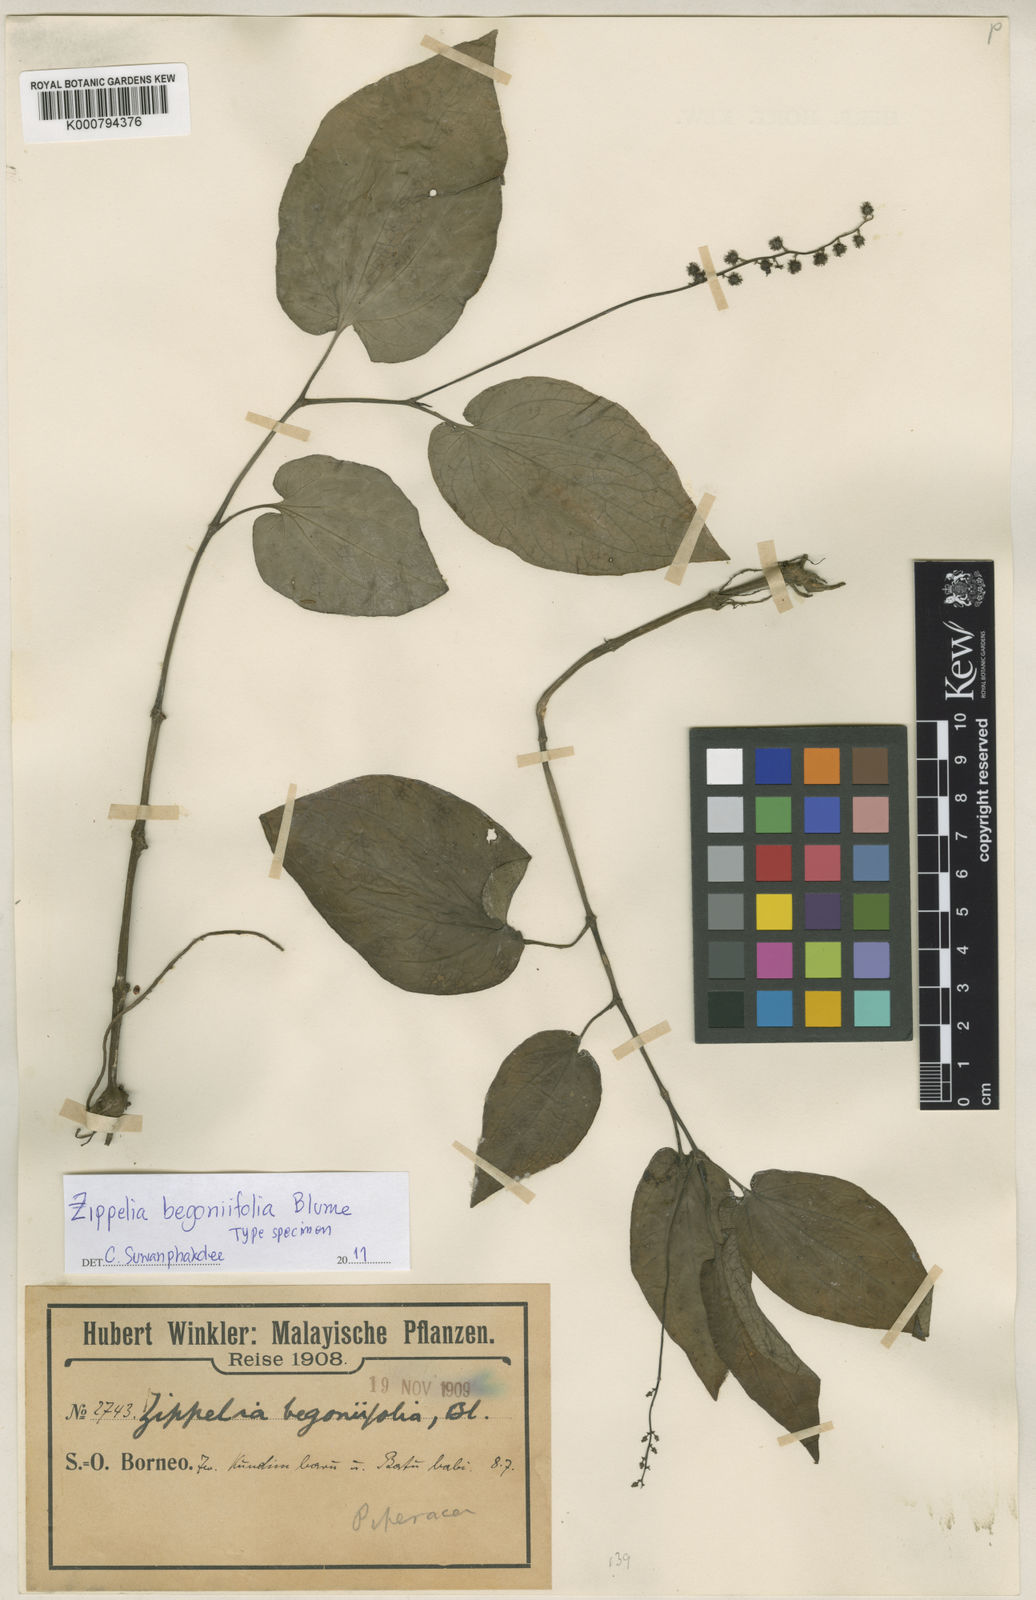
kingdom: Plantae
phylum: Tracheophyta
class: Magnoliopsida
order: Piperales
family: Piperaceae
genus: Zippelia
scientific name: Zippelia begoniifolia
